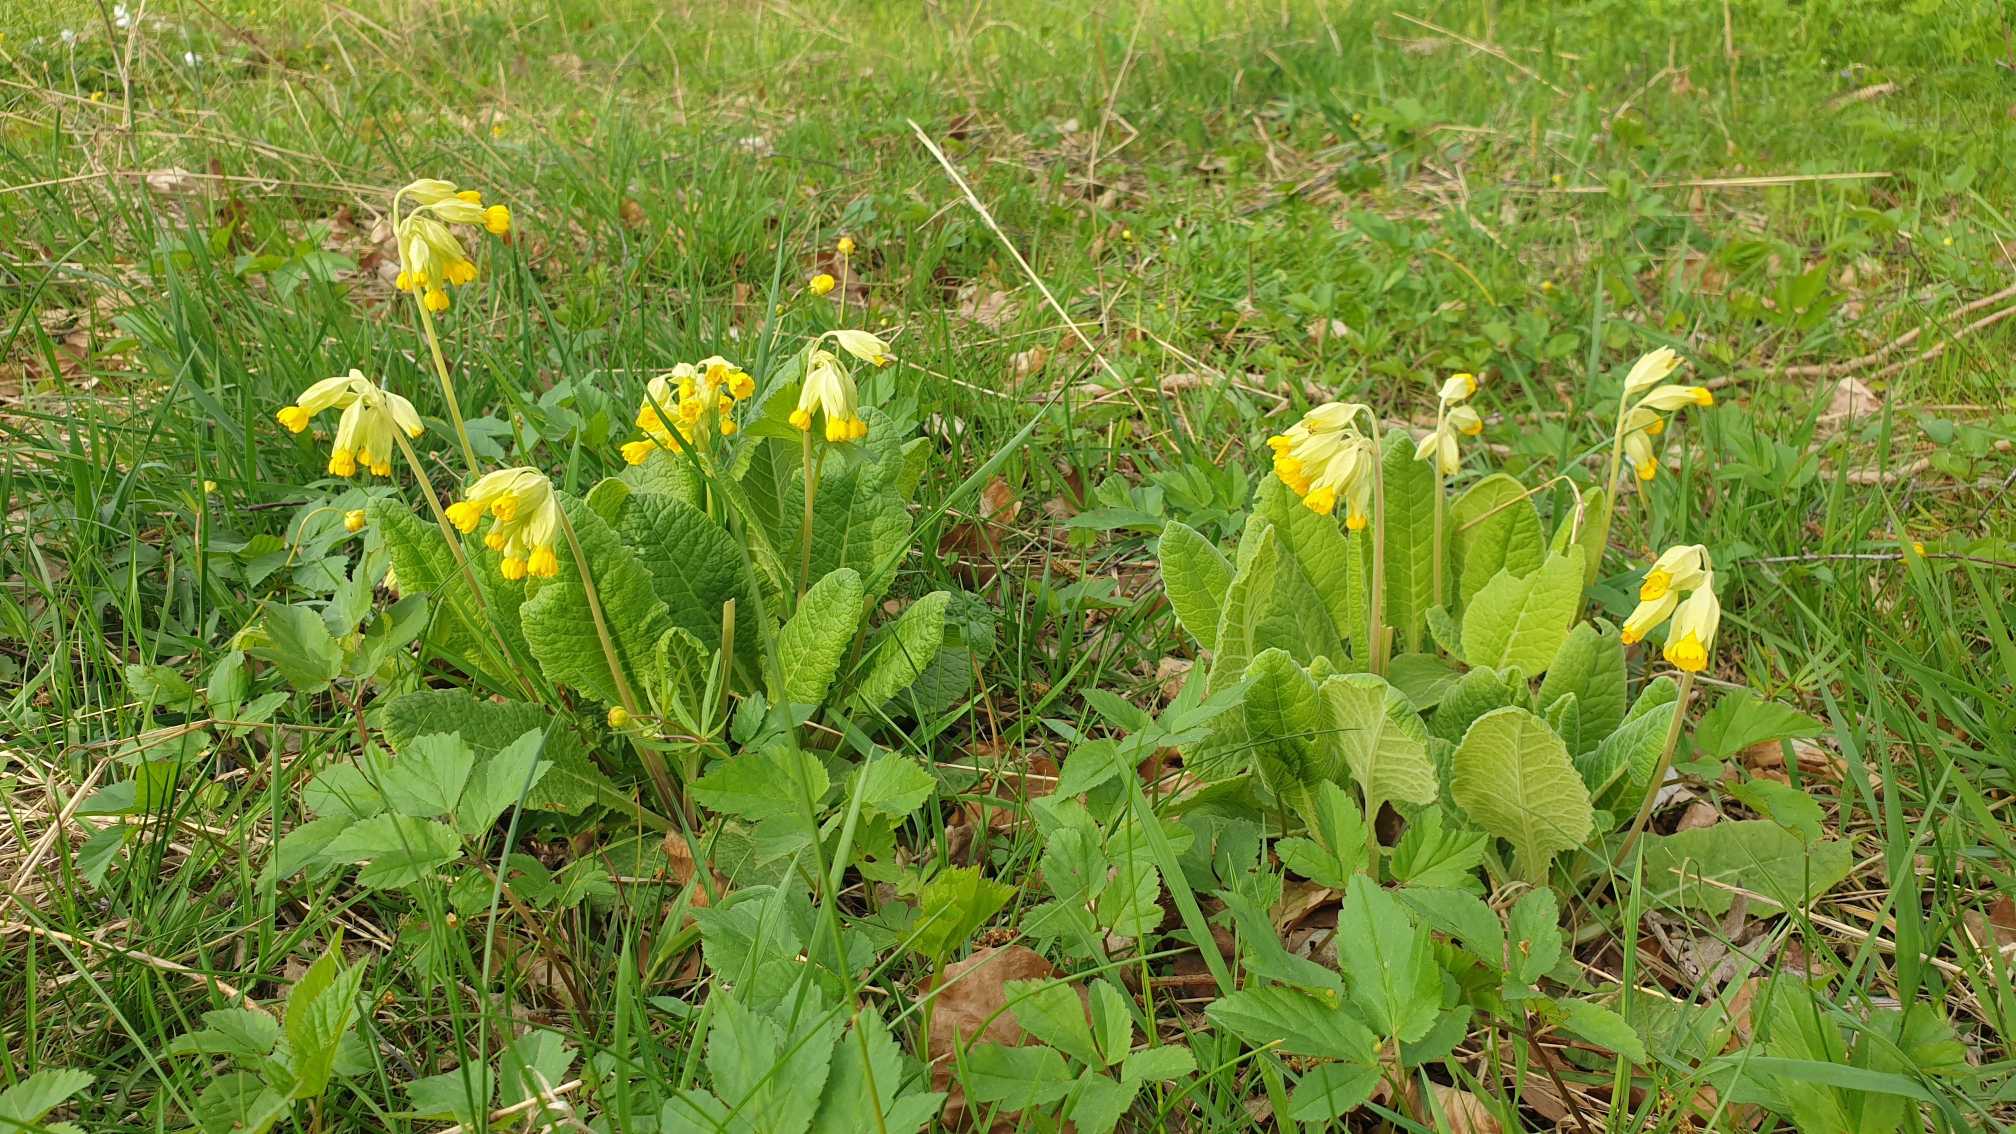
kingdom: Plantae
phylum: Tracheophyta
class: Magnoliopsida
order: Ericales
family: Primulaceae
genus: Primula
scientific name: Primula veris
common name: Hulkravet kodriver
